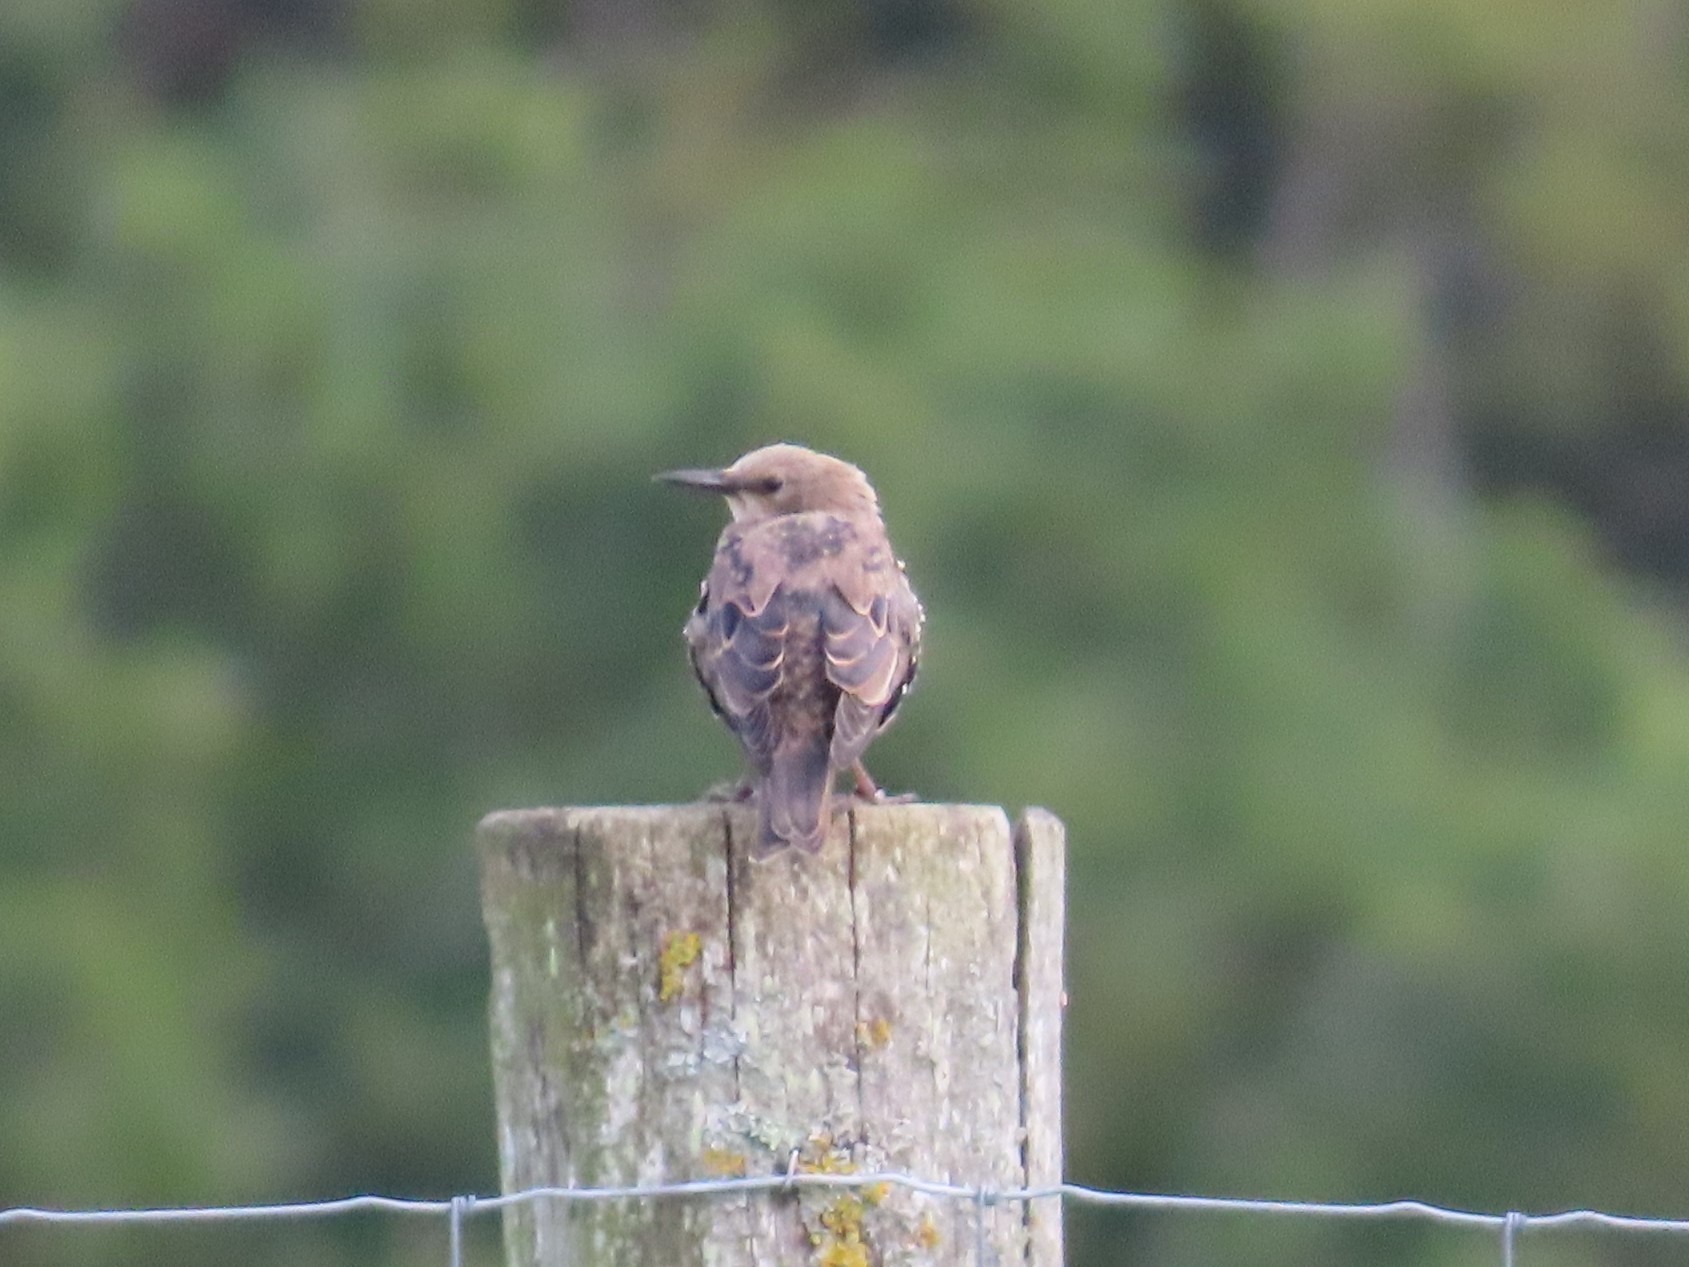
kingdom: Animalia
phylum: Chordata
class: Aves
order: Passeriformes
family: Sturnidae
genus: Sturnus
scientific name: Sturnus vulgaris
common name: Stær
